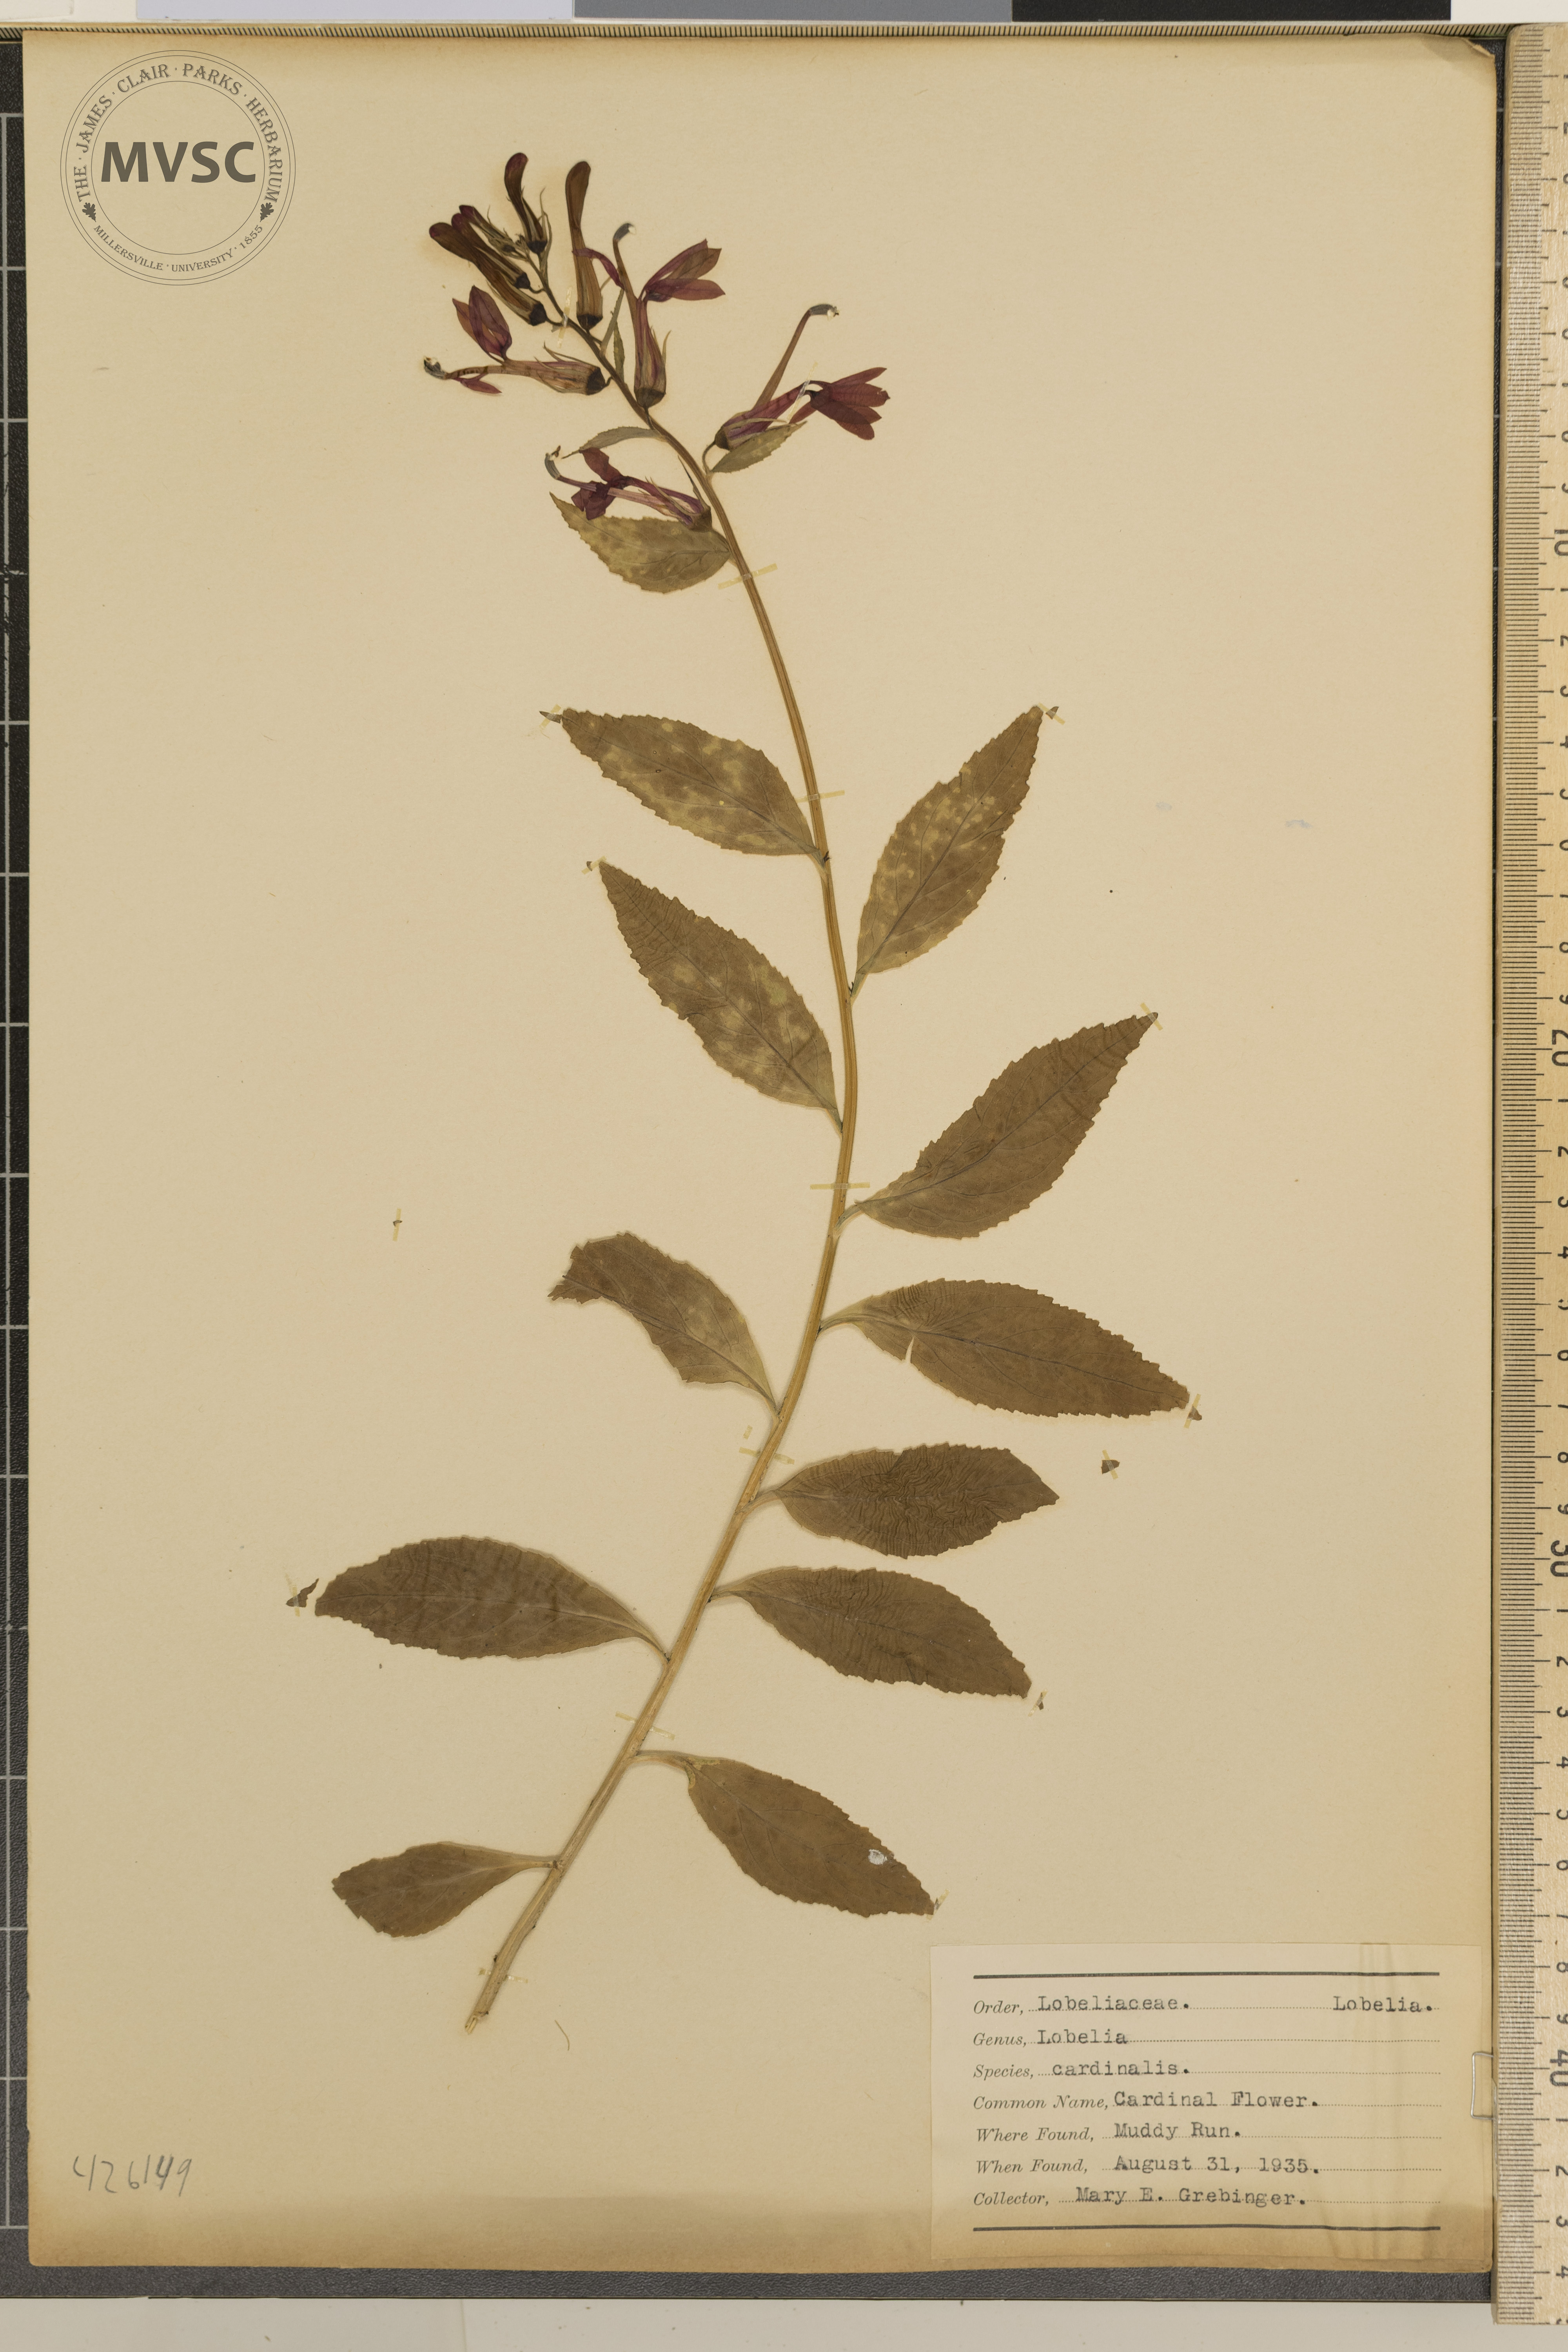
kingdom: Plantae
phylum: Tracheophyta
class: Magnoliopsida
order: Asterales
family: Campanulaceae
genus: Lobelia
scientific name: Lobelia cardinalis
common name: Cardinal Flower
